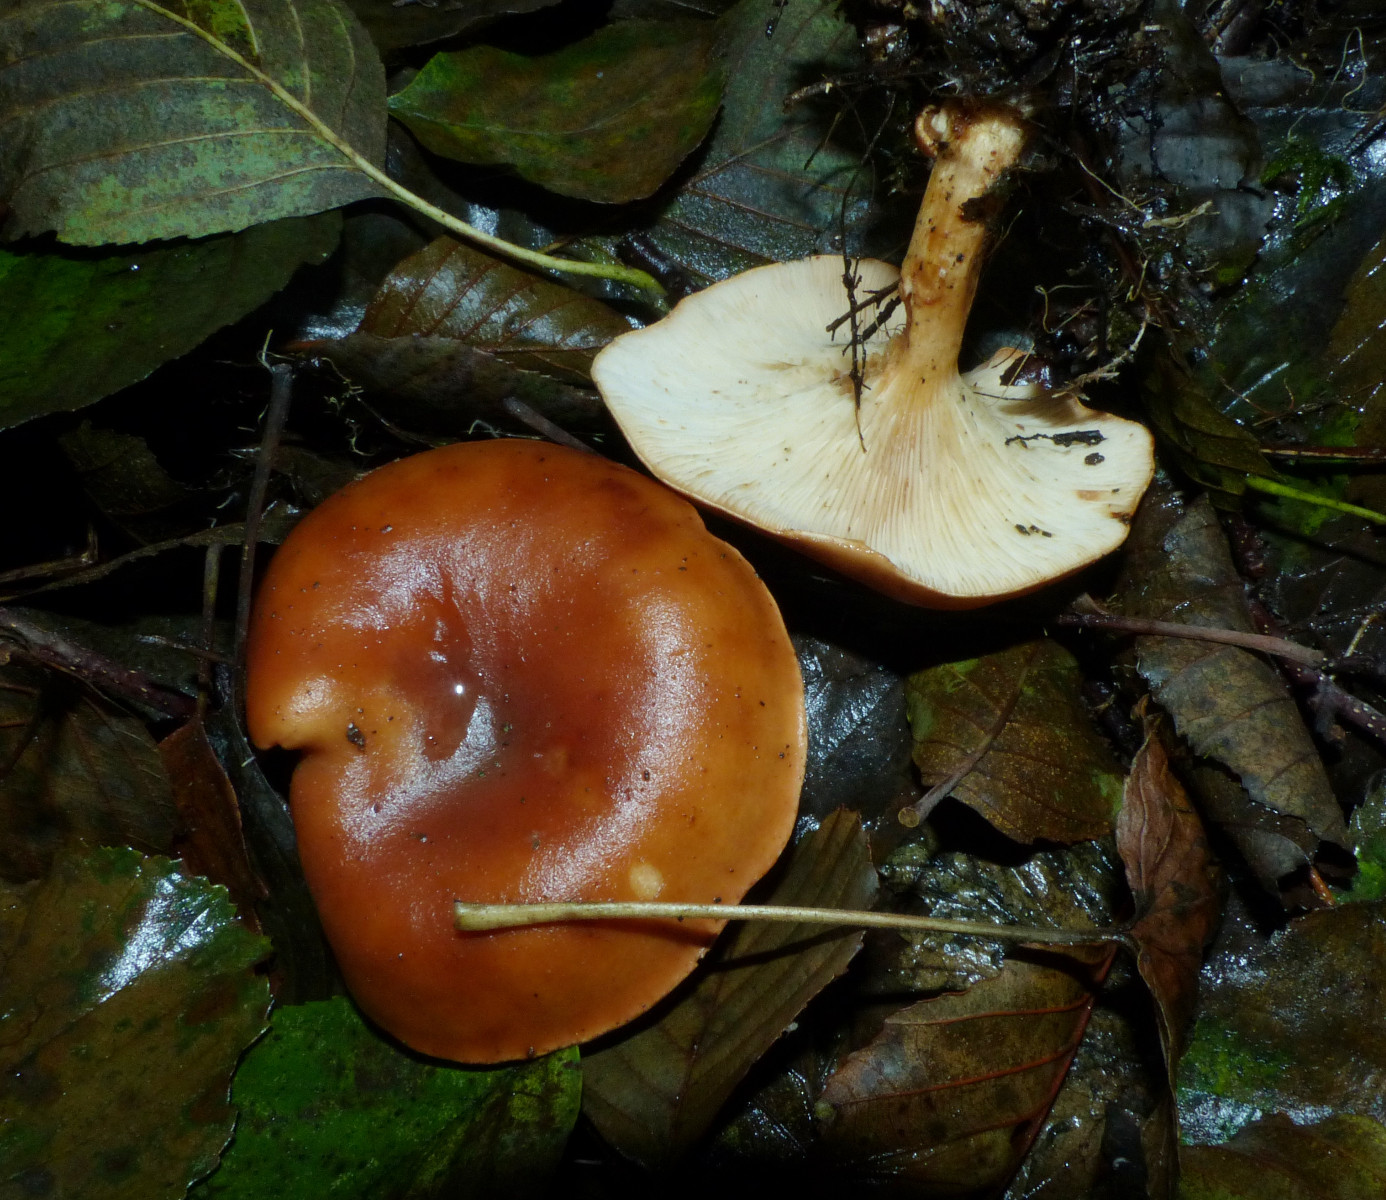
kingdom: Fungi
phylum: Basidiomycota
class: Agaricomycetes
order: Agaricales
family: Tricholomataceae
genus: Paralepista
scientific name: Paralepista flaccida
